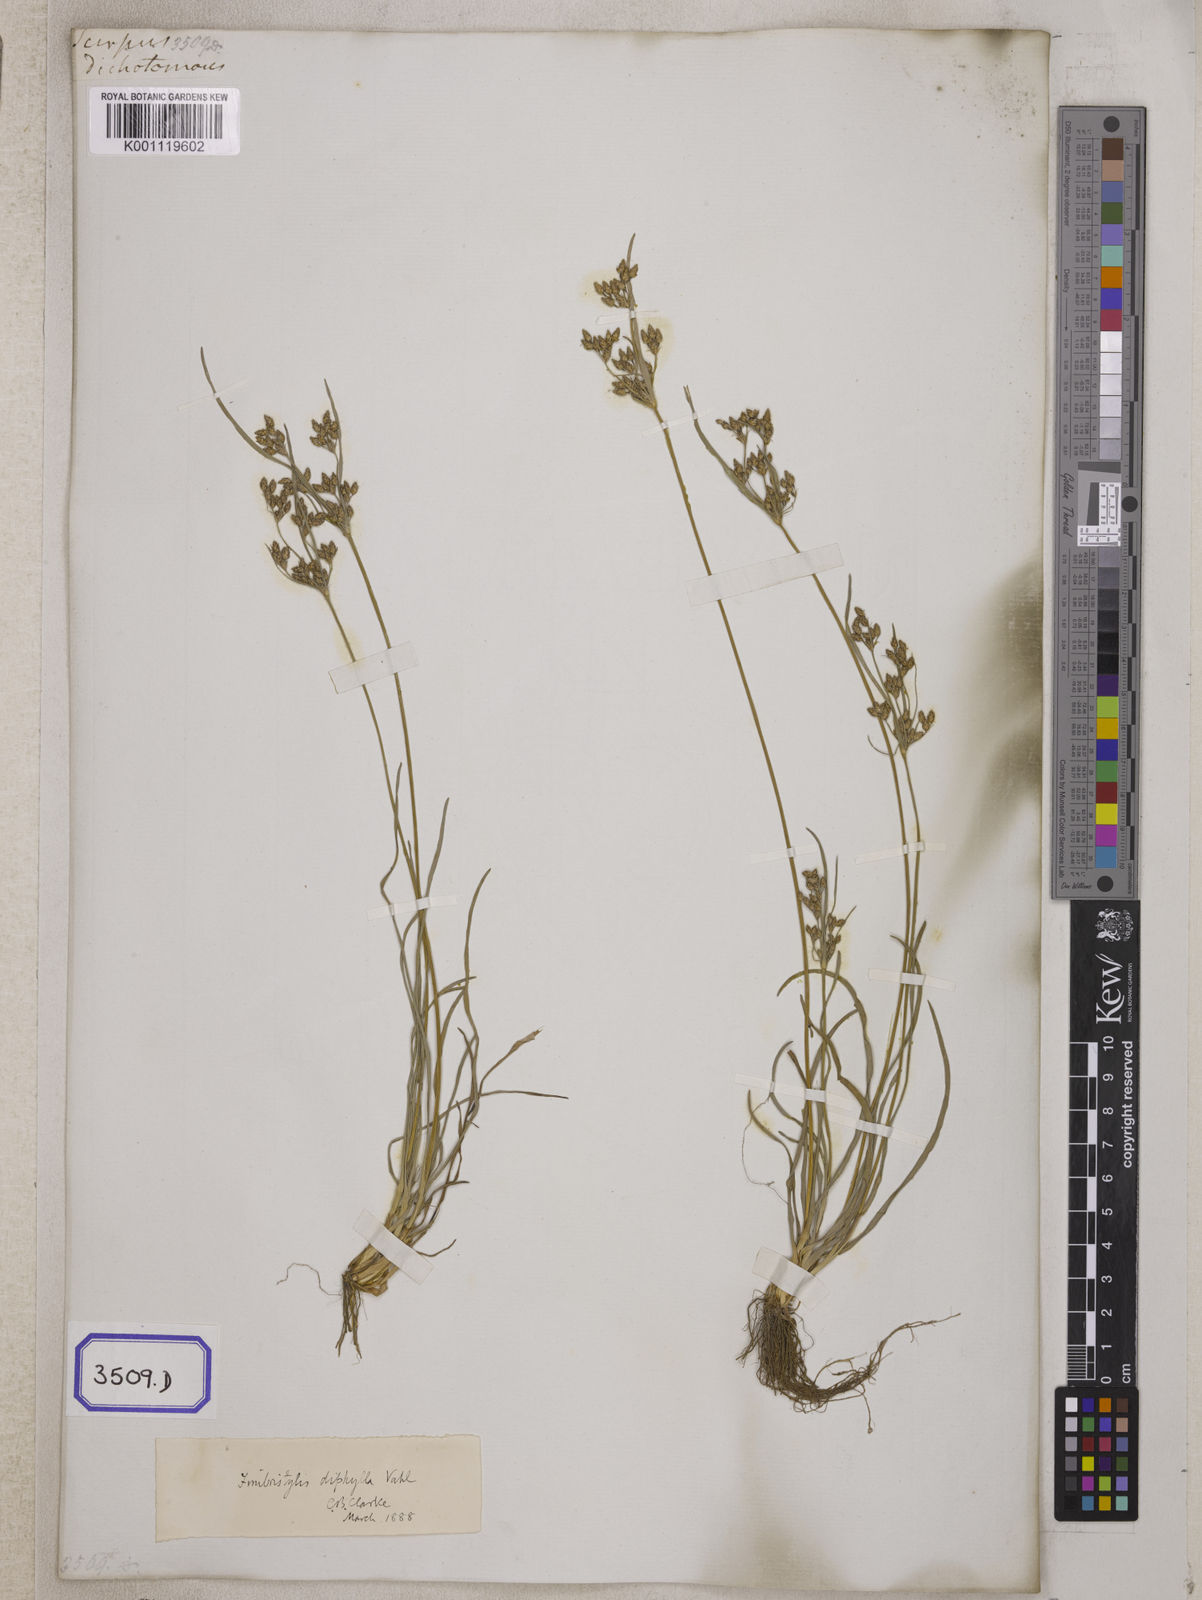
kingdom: Plantae
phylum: Tracheophyta
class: Liliopsida
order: Poales
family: Cyperaceae
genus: Fimbristylis
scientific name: Fimbristylis
